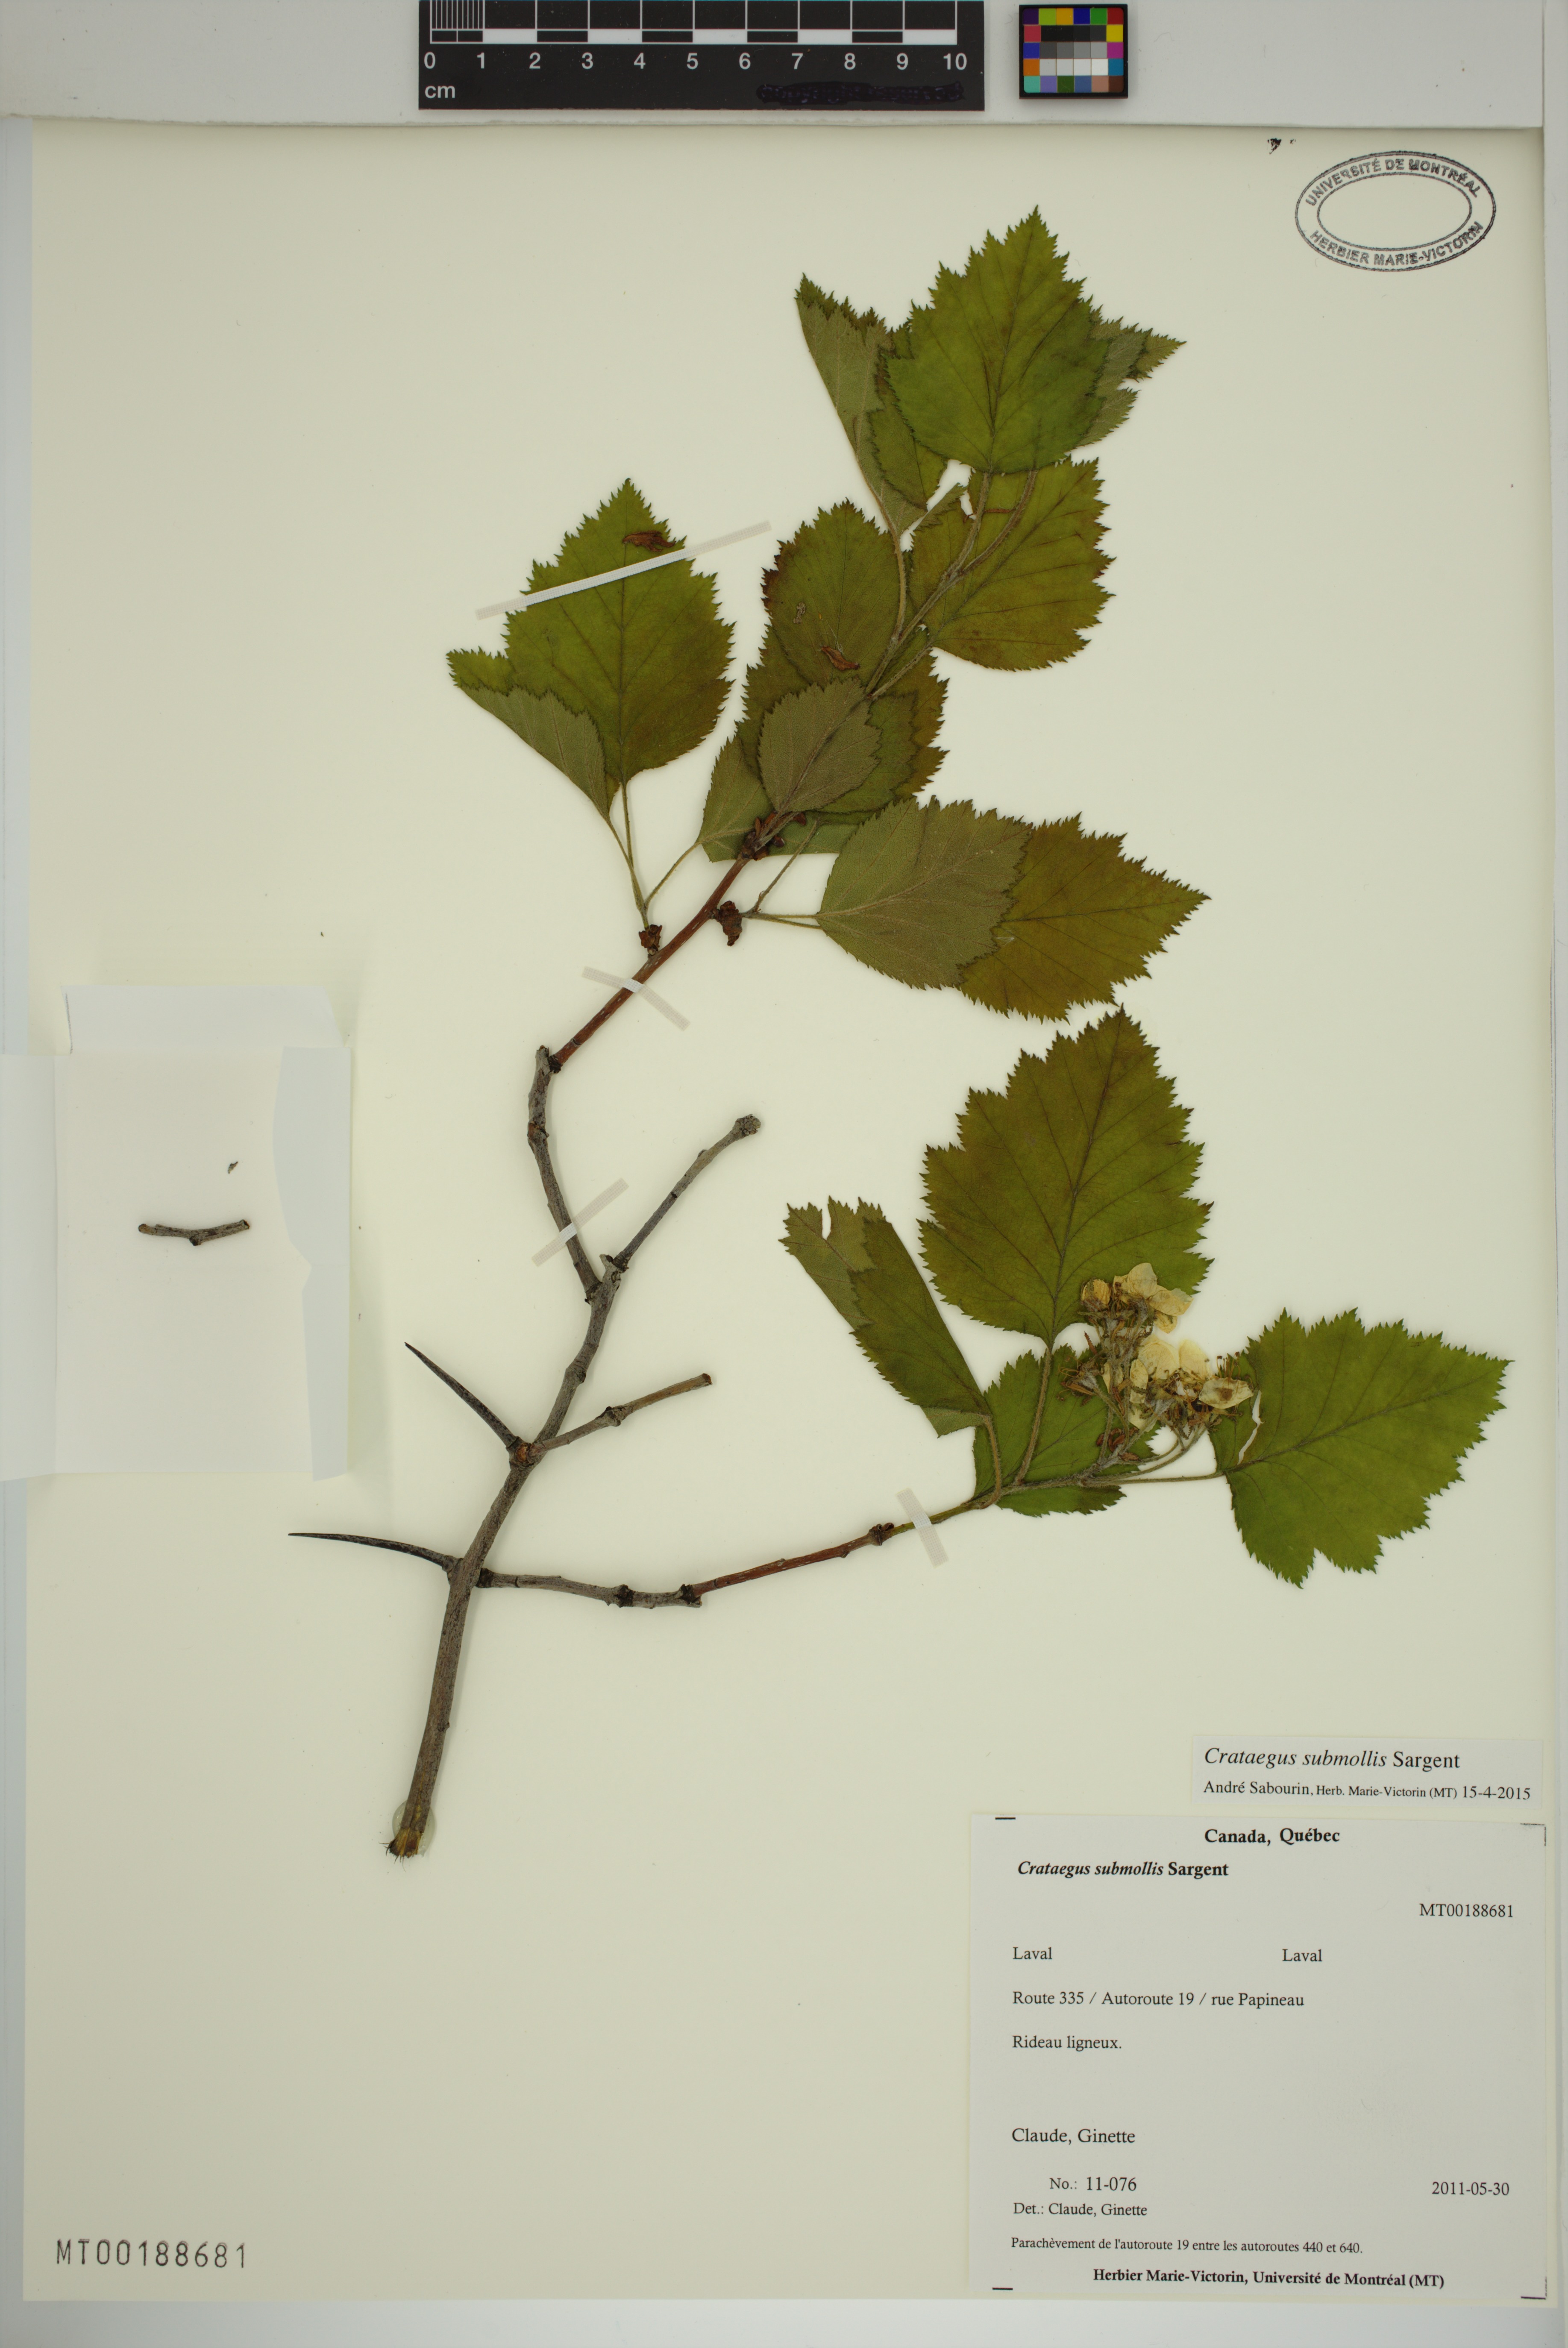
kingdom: Plantae
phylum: Tracheophyta
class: Magnoliopsida
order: Rosales
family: Rosaceae
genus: Crataegus
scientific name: Crataegus submollis
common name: Hairy cockspurthorn
